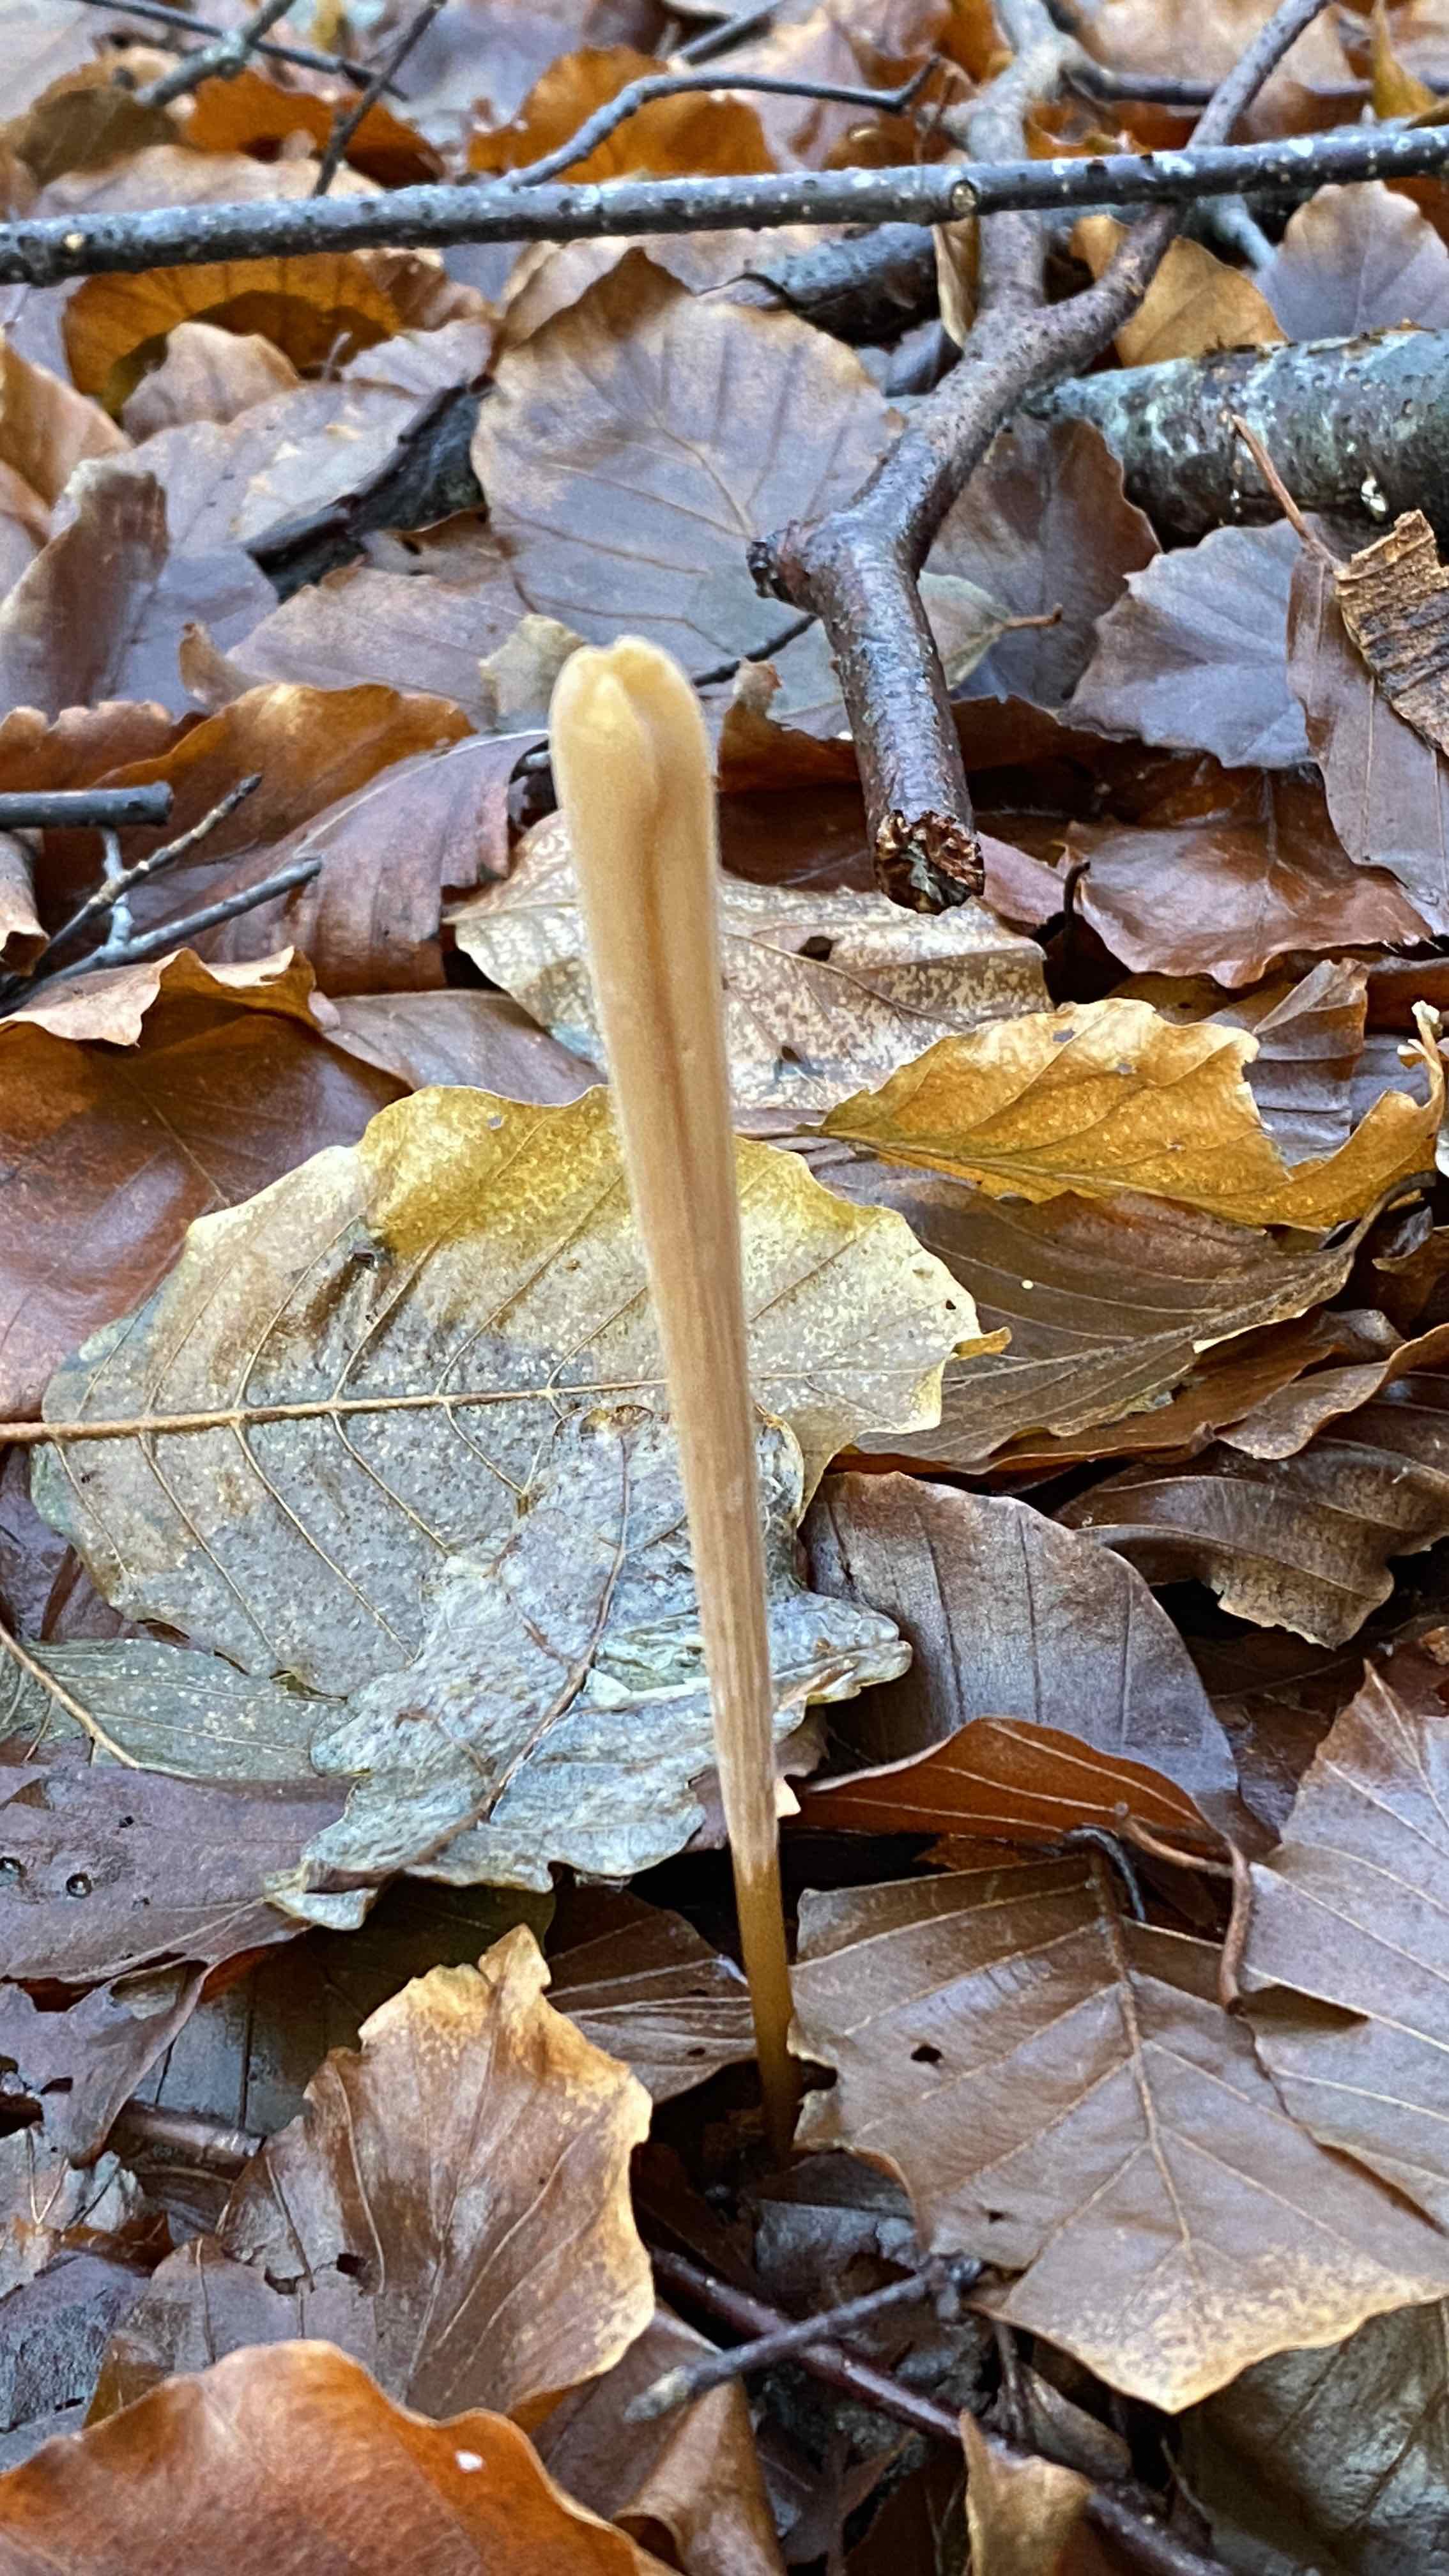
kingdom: Fungi
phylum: Basidiomycota
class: Agaricomycetes
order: Agaricales
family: Typhulaceae
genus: Typhula
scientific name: Typhula fistulosa
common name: pibet rørkølle
